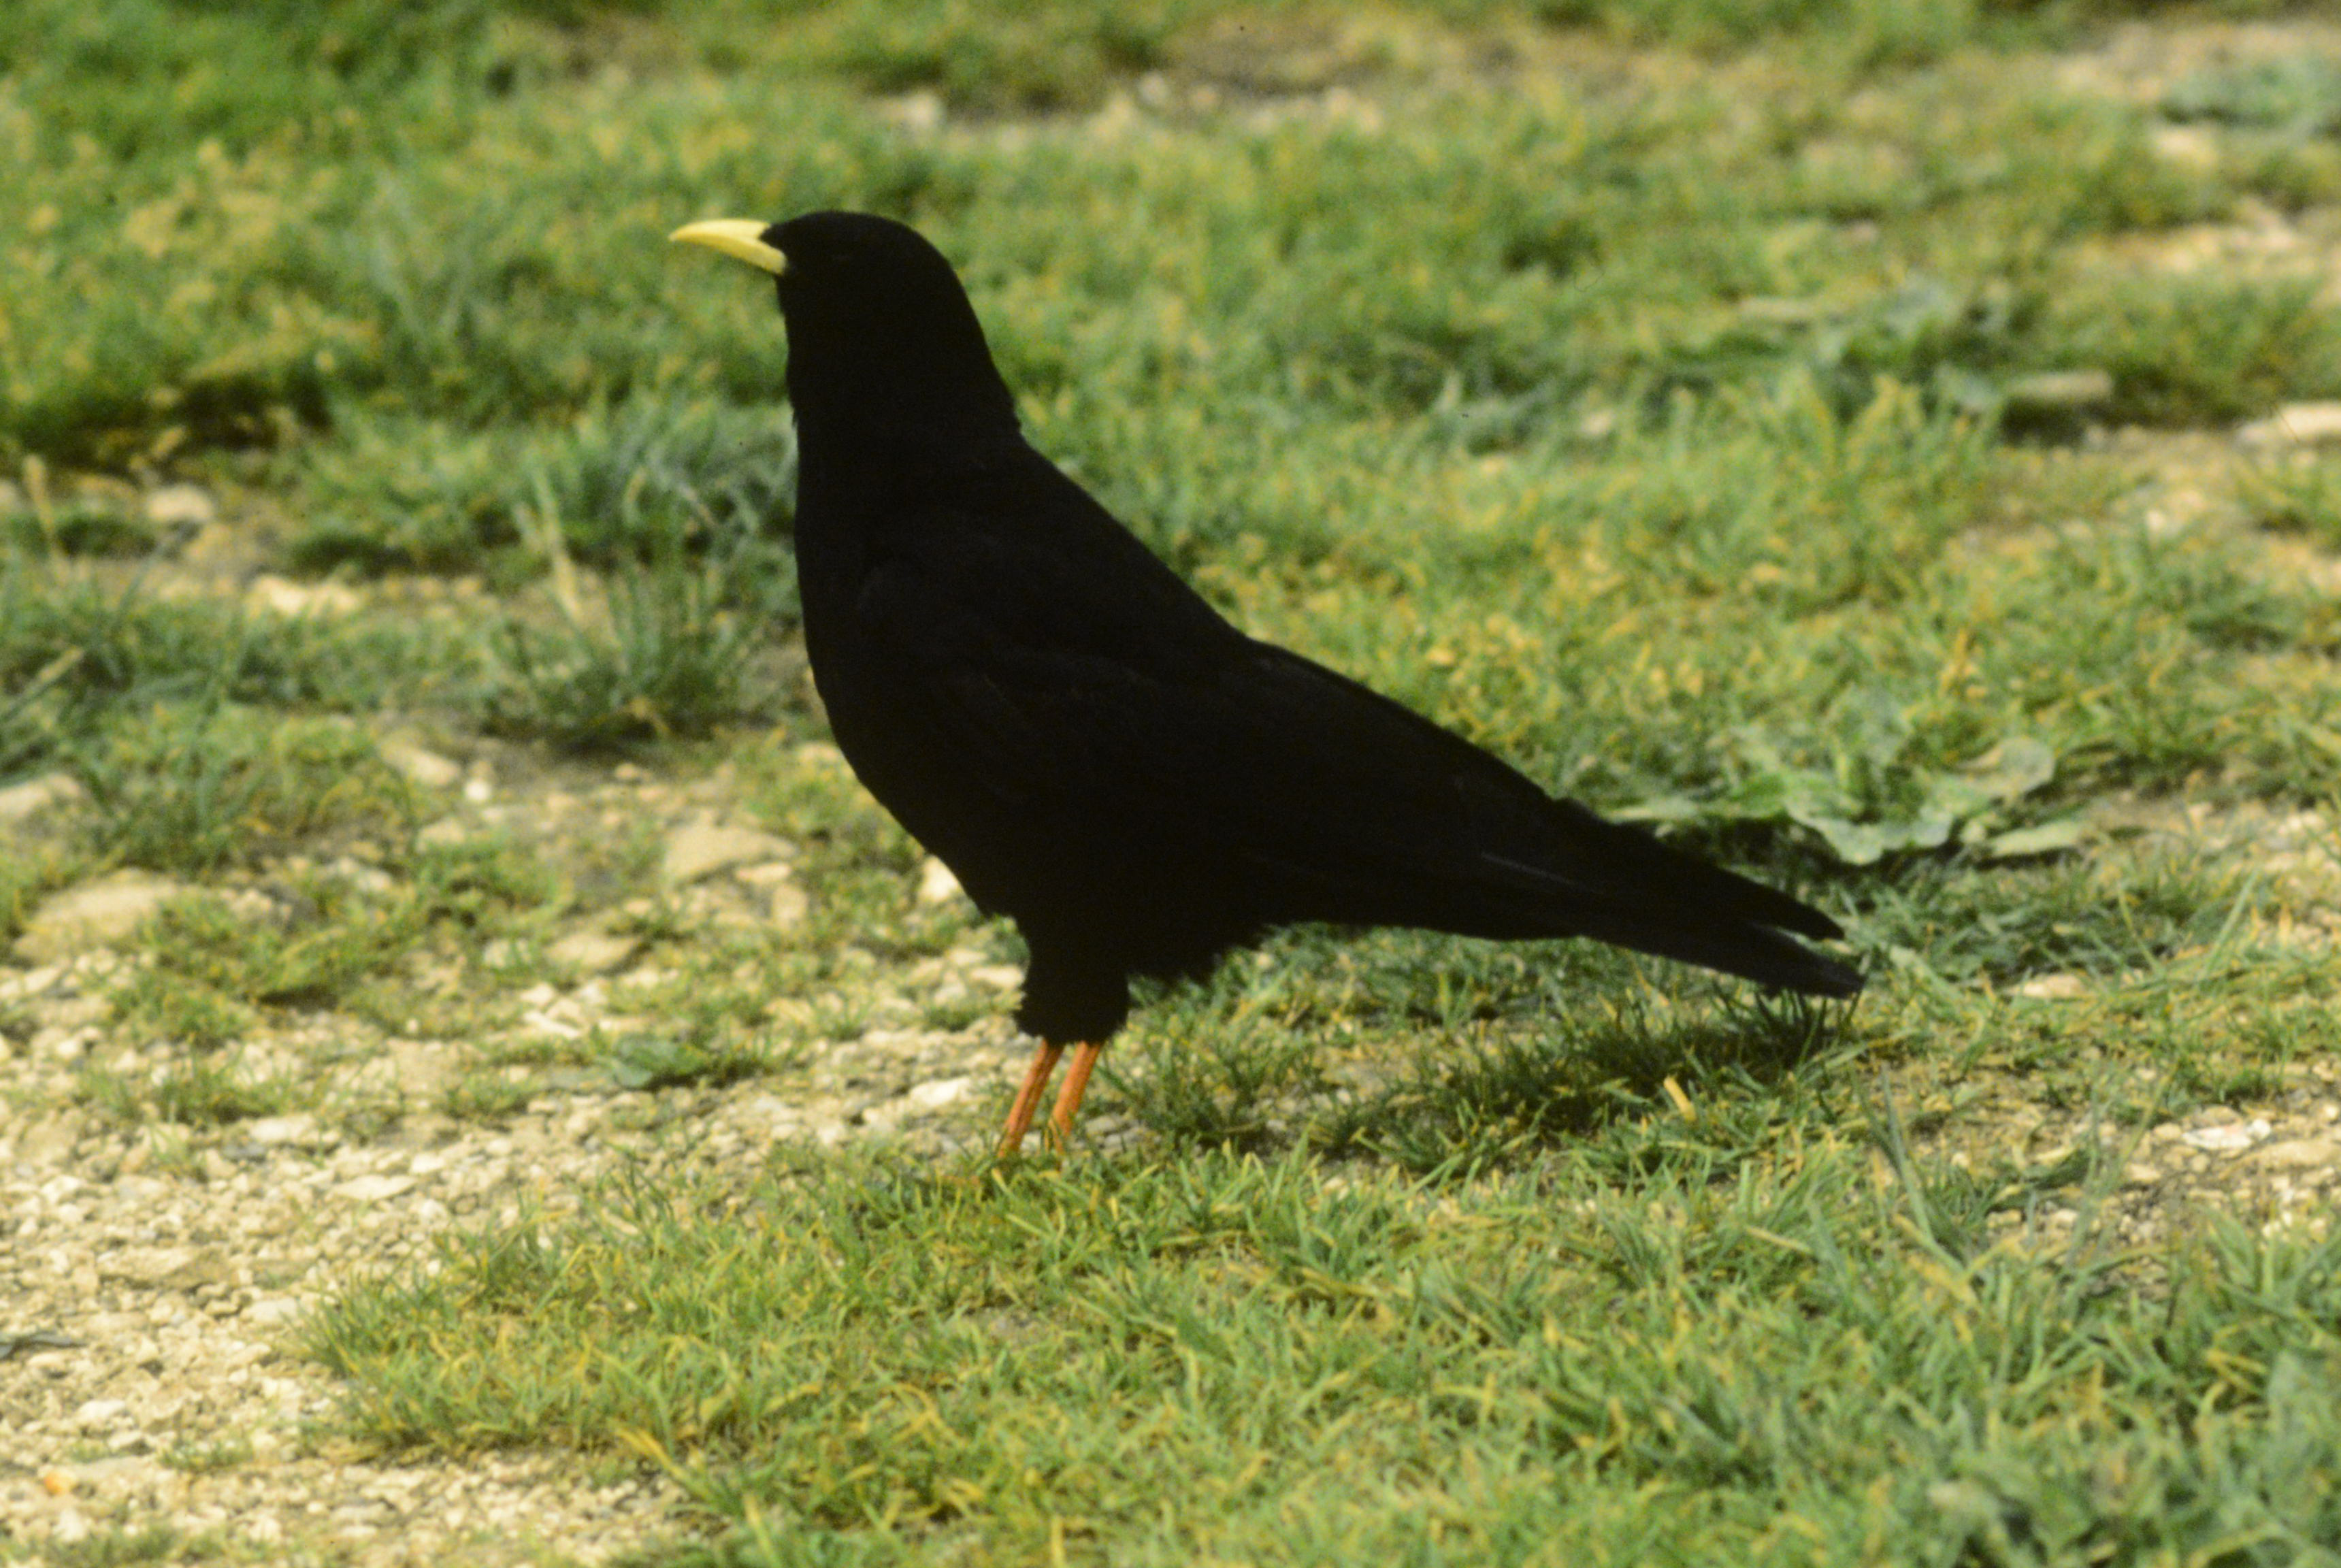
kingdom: Animalia
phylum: Chordata
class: Aves
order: Passeriformes
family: Corvidae
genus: Pyrrhocorax
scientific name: Pyrrhocorax graculus
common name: Alpine chough
